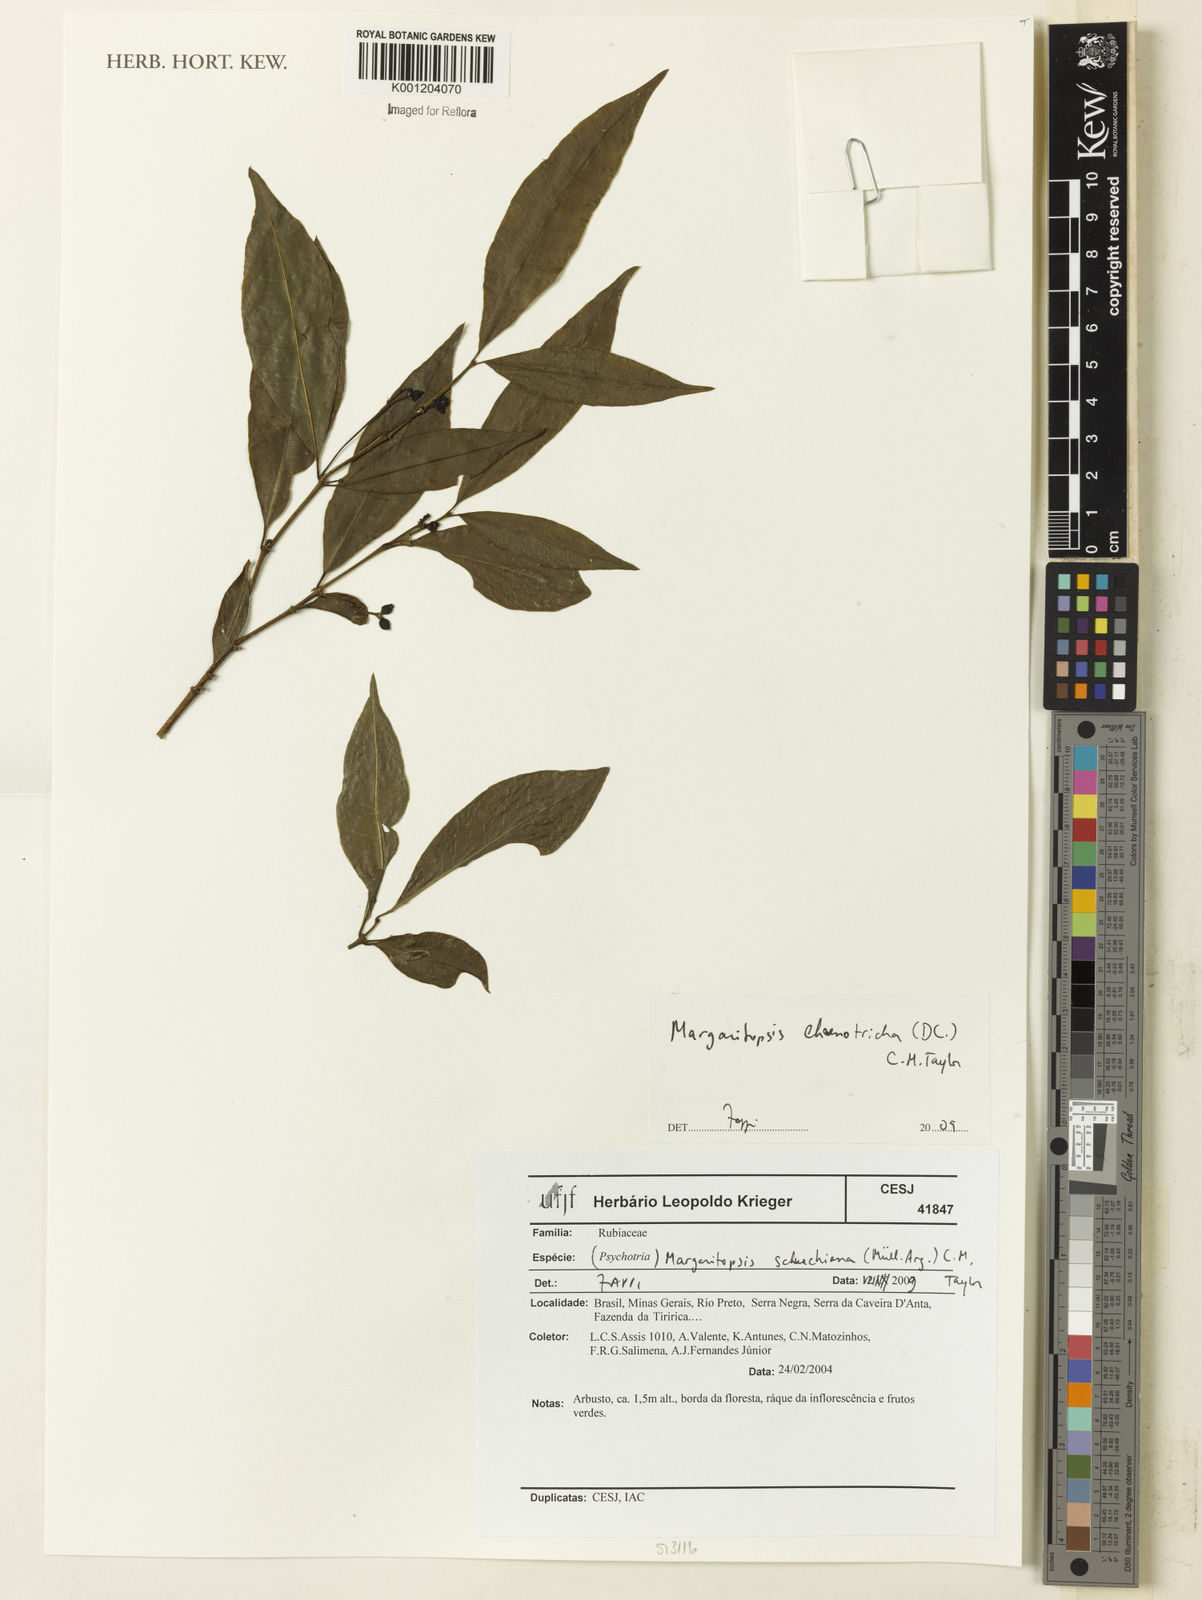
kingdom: Plantae
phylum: Tracheophyta
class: Magnoliopsida
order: Gentianales
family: Rubiaceae
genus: Eumachia
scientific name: Eumachia chaenotricha
